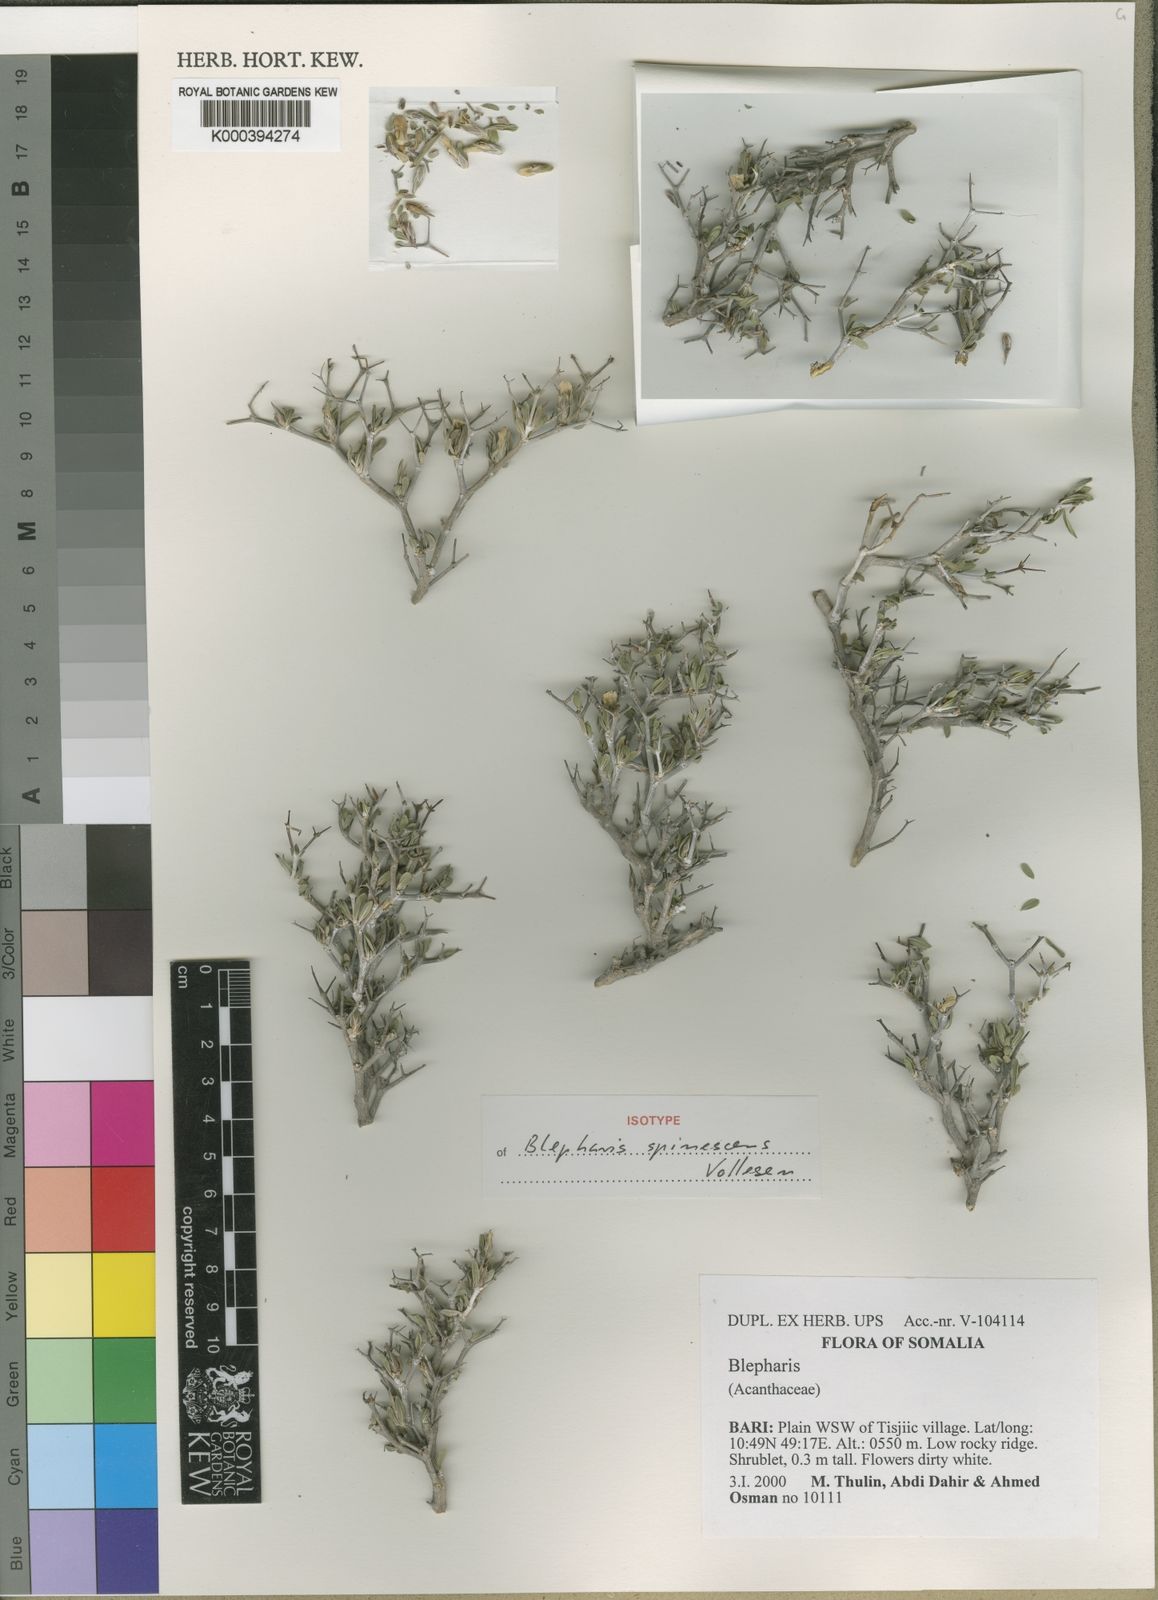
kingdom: Plantae
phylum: Tracheophyta
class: Magnoliopsida
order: Lamiales
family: Acanthaceae
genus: Blepharis
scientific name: Blepharis spinescens
